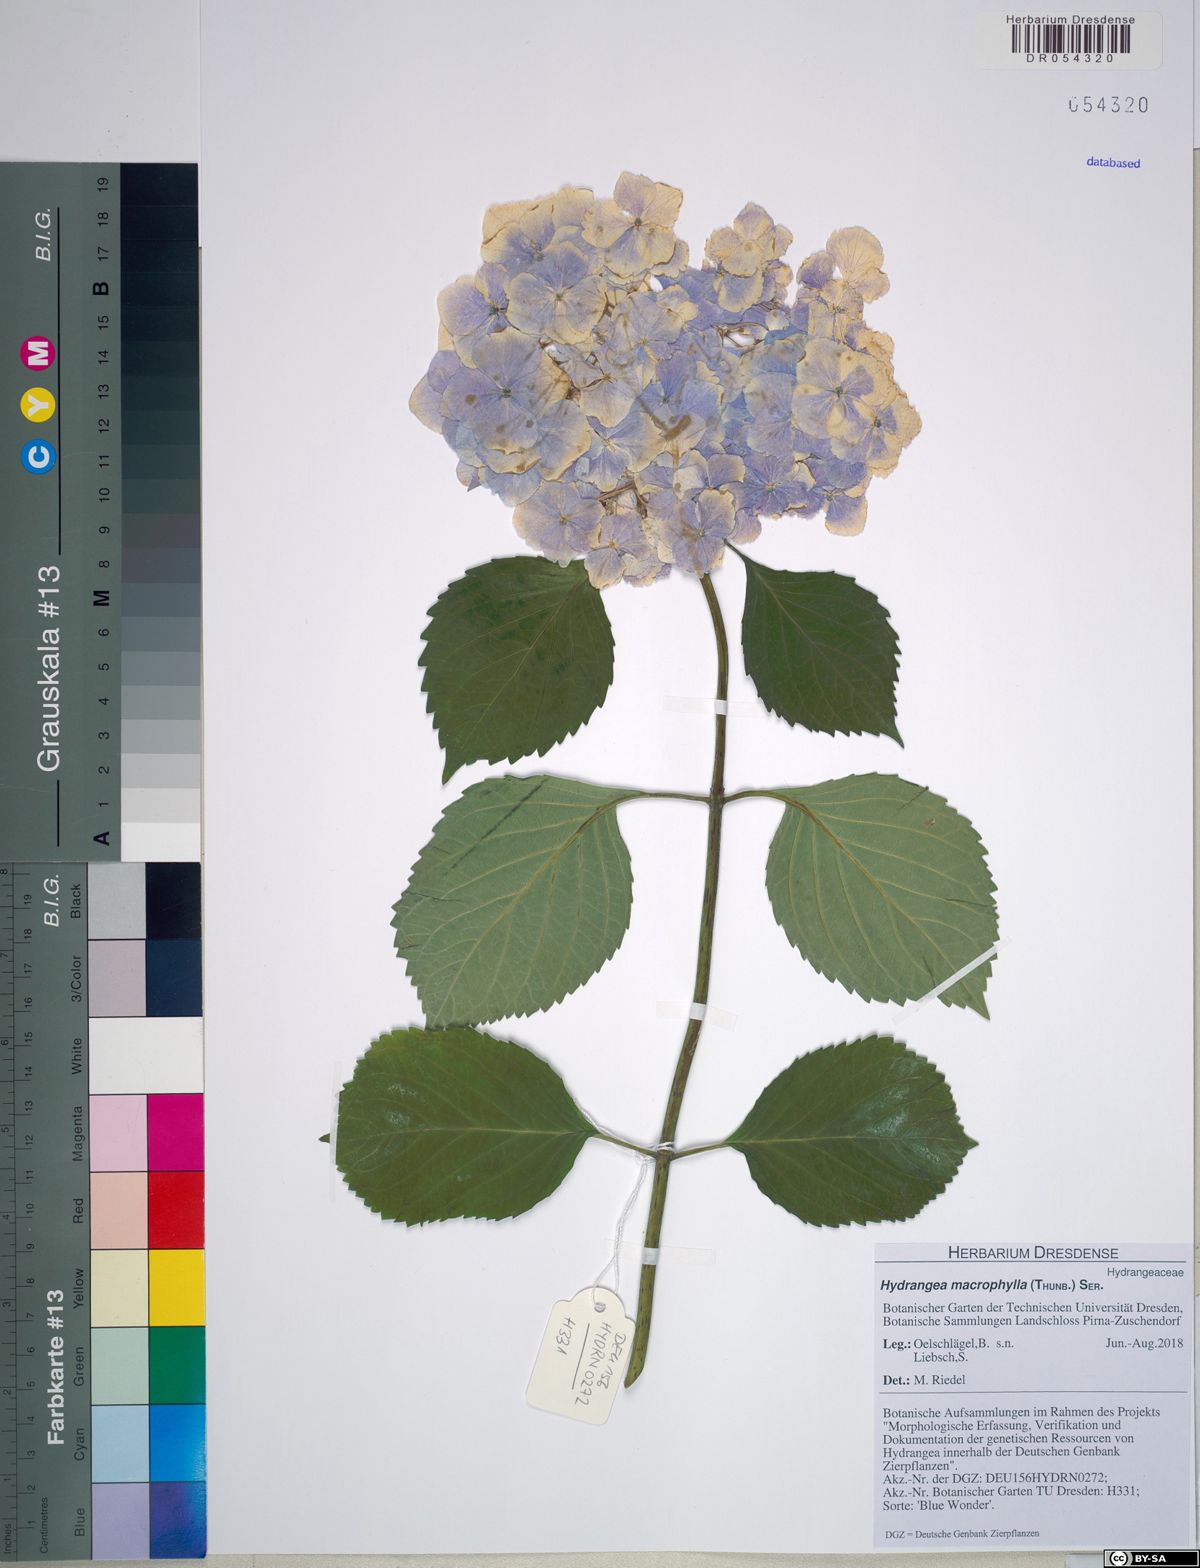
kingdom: Plantae
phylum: Tracheophyta
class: Magnoliopsida
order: Cornales
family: Hydrangeaceae
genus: Hydrangea
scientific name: Hydrangea macrophylla
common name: Hydrangea
